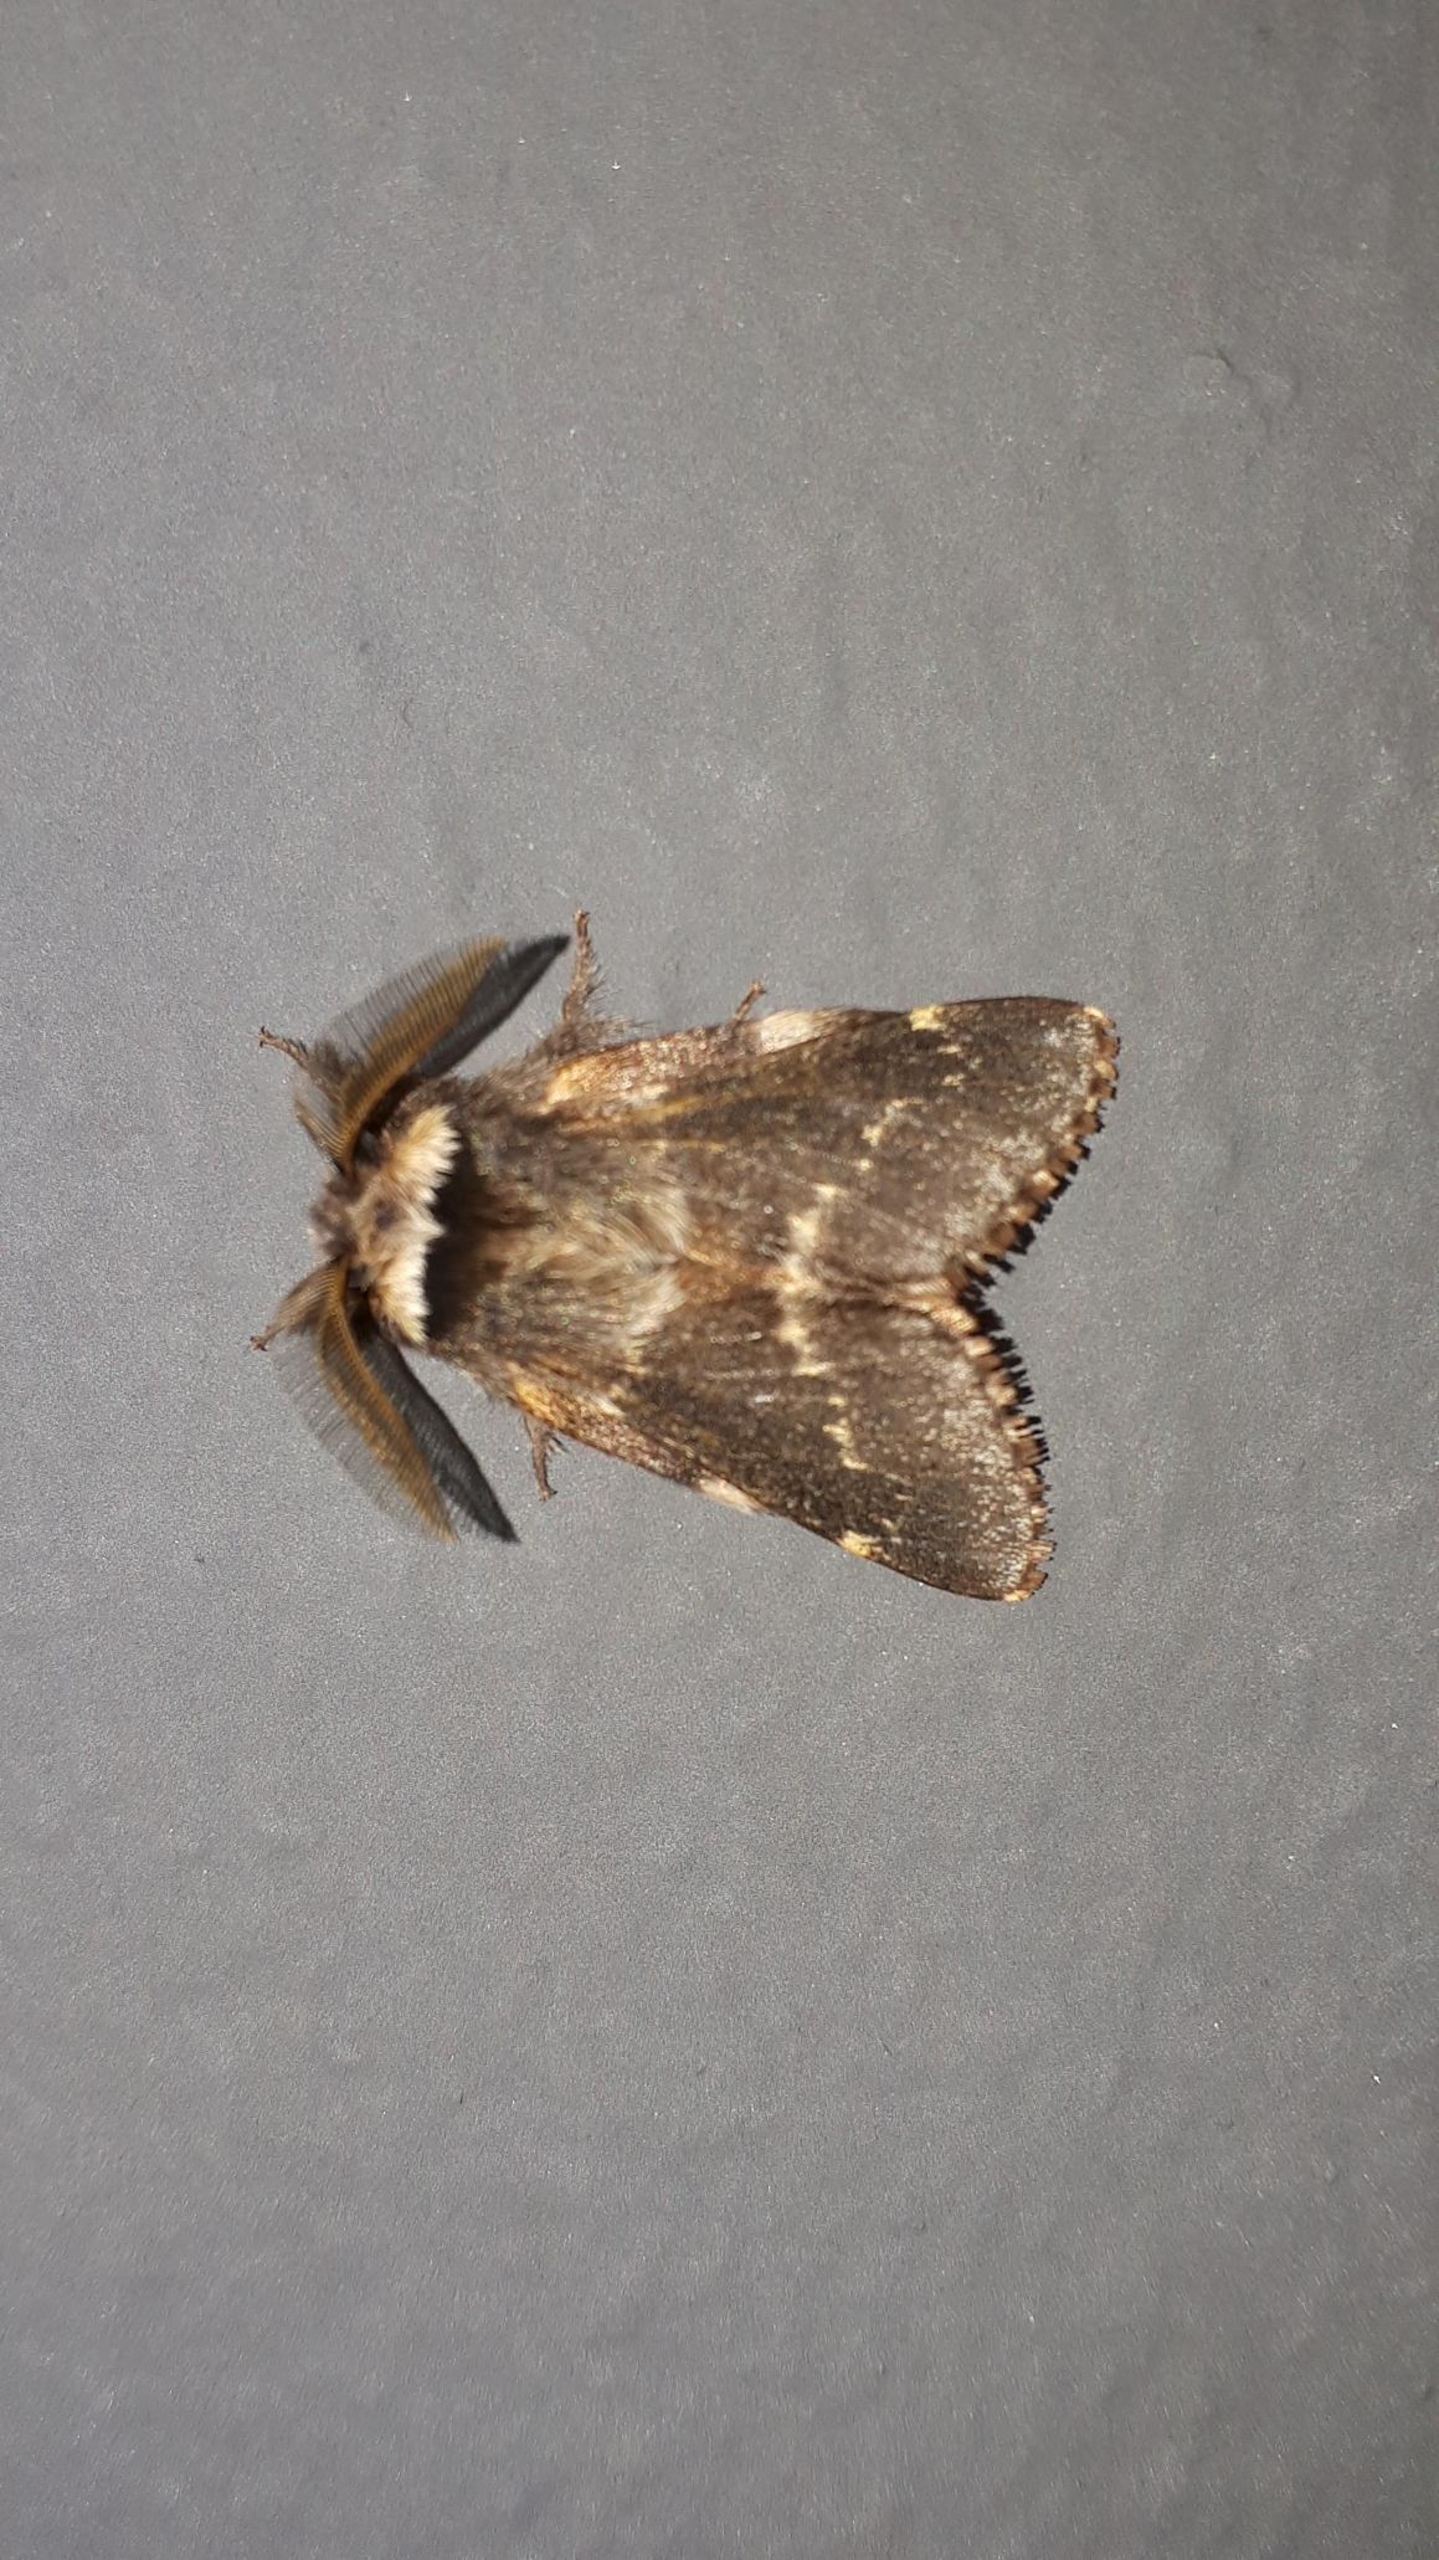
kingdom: Animalia
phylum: Arthropoda
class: Insecta
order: Lepidoptera
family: Lasiocampidae
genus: Poecilocampa
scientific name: Poecilocampa populi
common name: Poppelspinder
